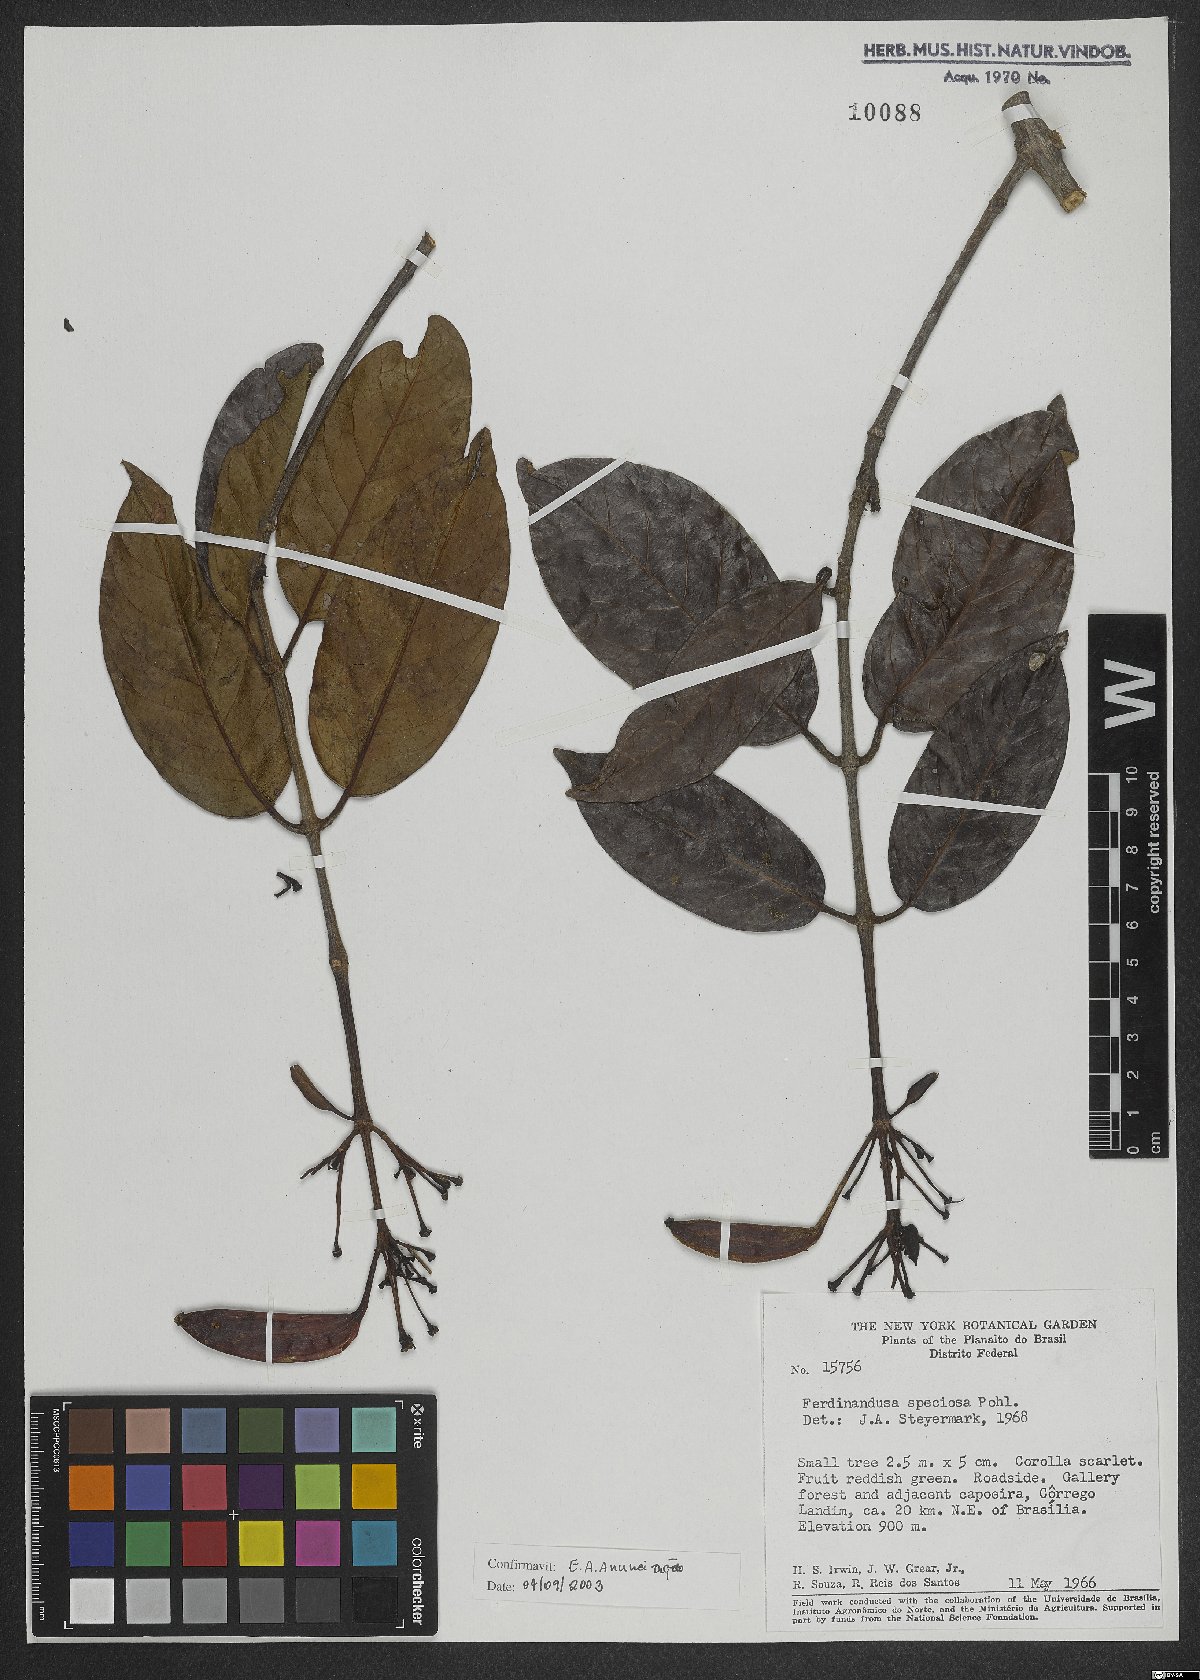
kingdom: Plantae
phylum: Tracheophyta
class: Magnoliopsida
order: Gentianales
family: Rubiaceae
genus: Ferdinandusa
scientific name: Ferdinandusa speciosa
